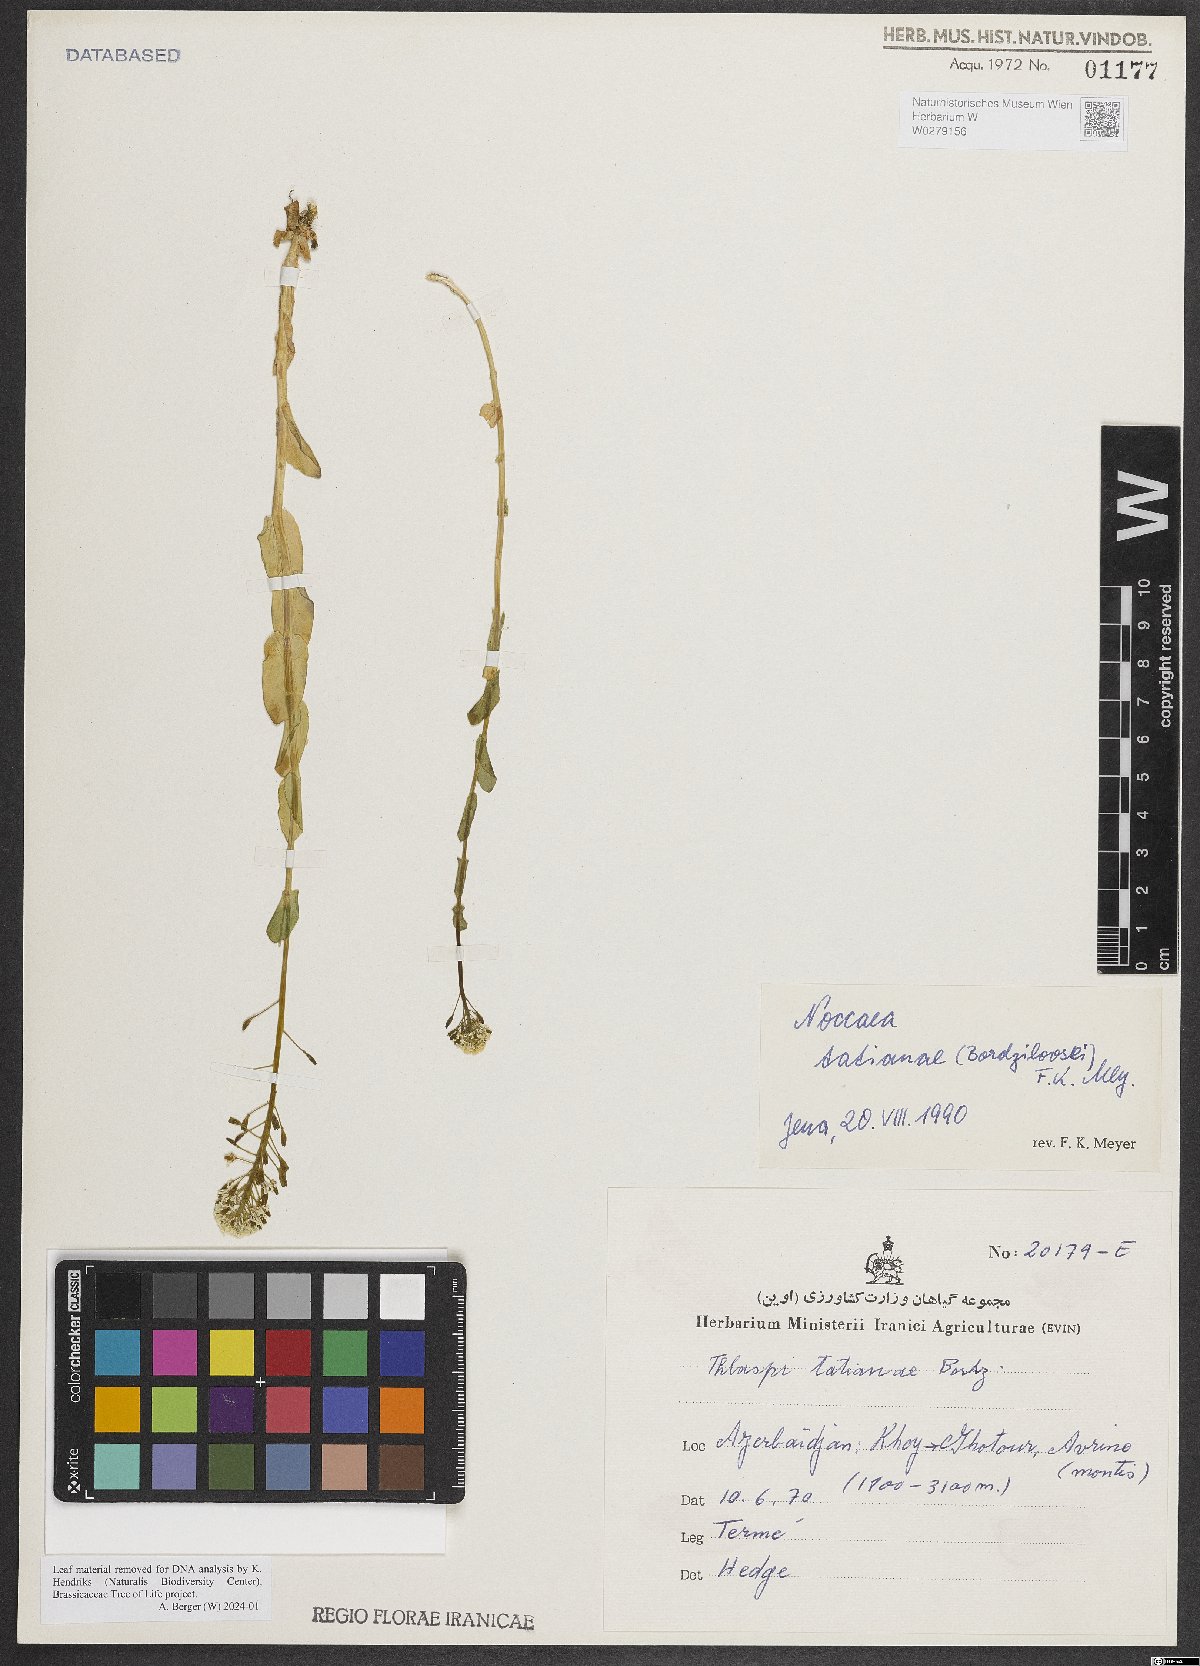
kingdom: Plantae
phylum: Tracheophyta
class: Magnoliopsida
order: Brassicales
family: Brassicaceae
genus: Noccaea
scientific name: Noccaea tatianae
